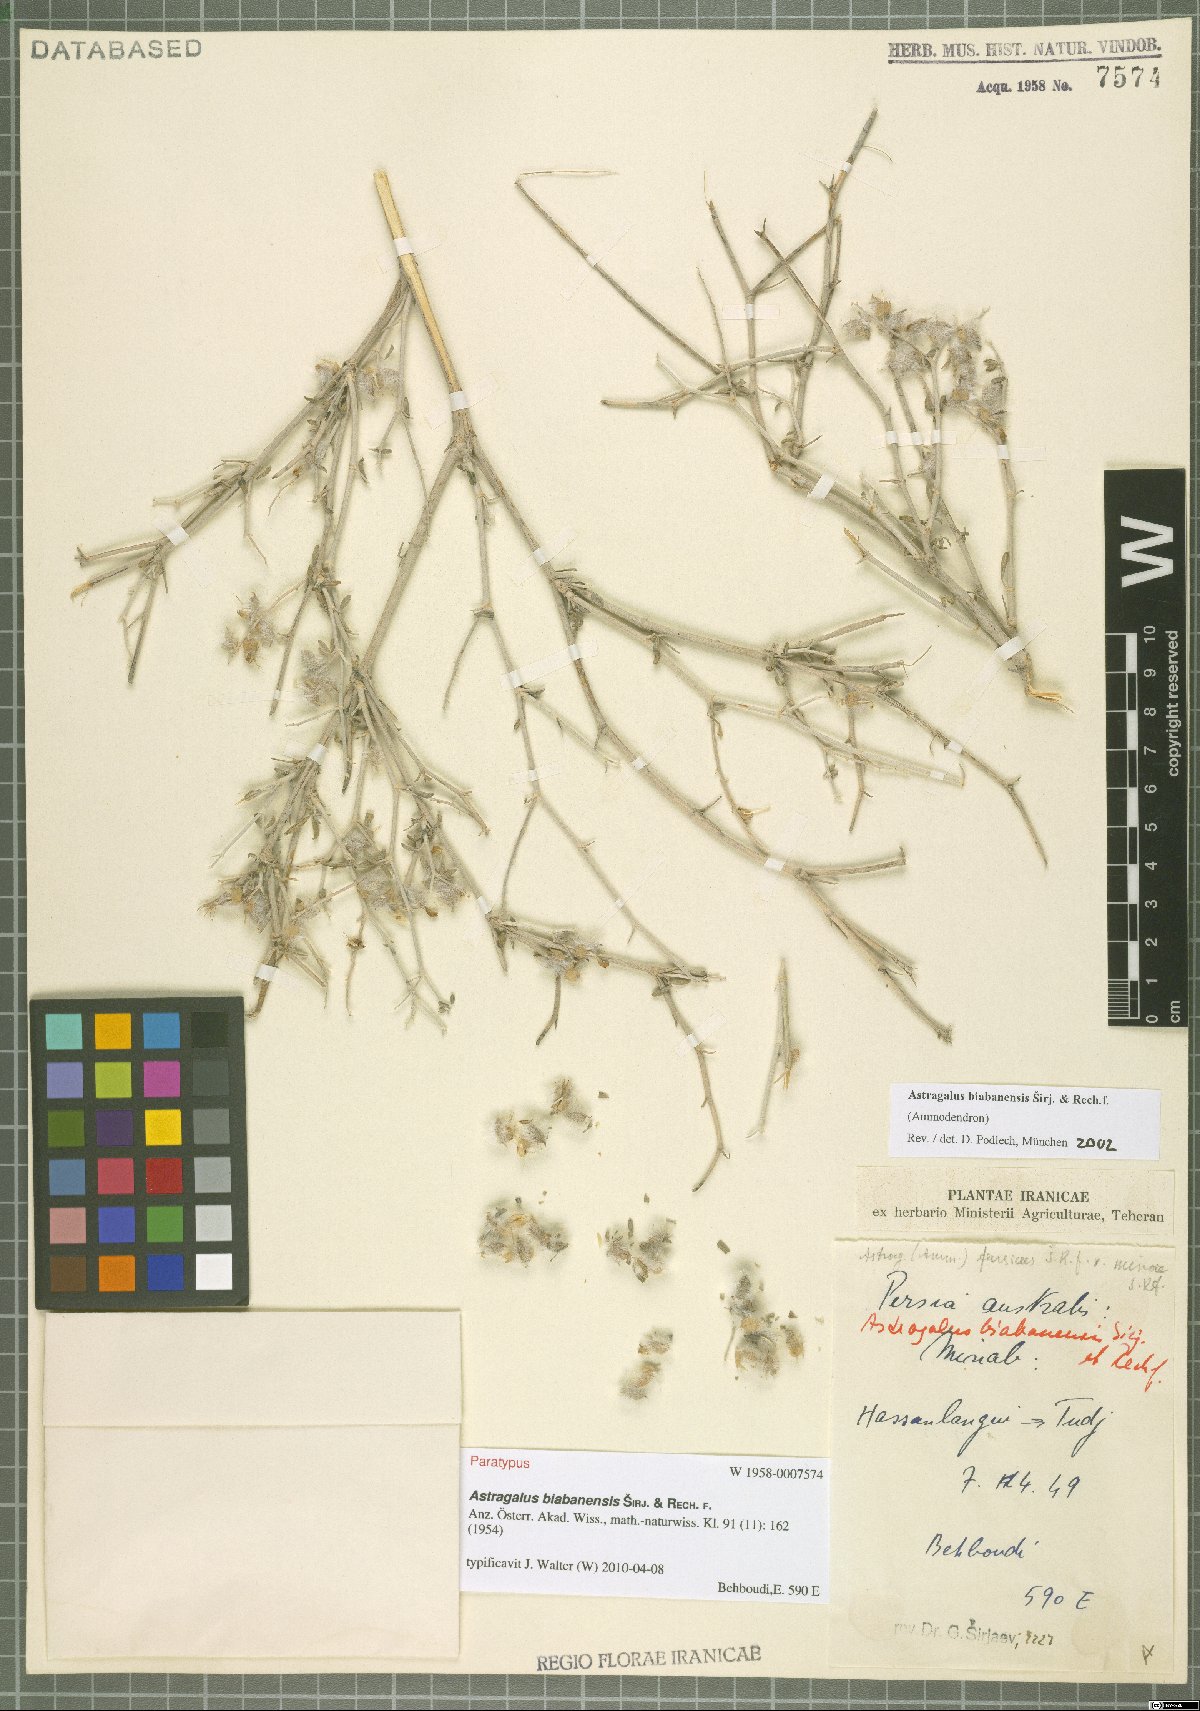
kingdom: Plantae
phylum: Tracheophyta
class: Magnoliopsida
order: Fabales
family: Fabaceae
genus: Astragalus
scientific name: Astragalus biabanensis
